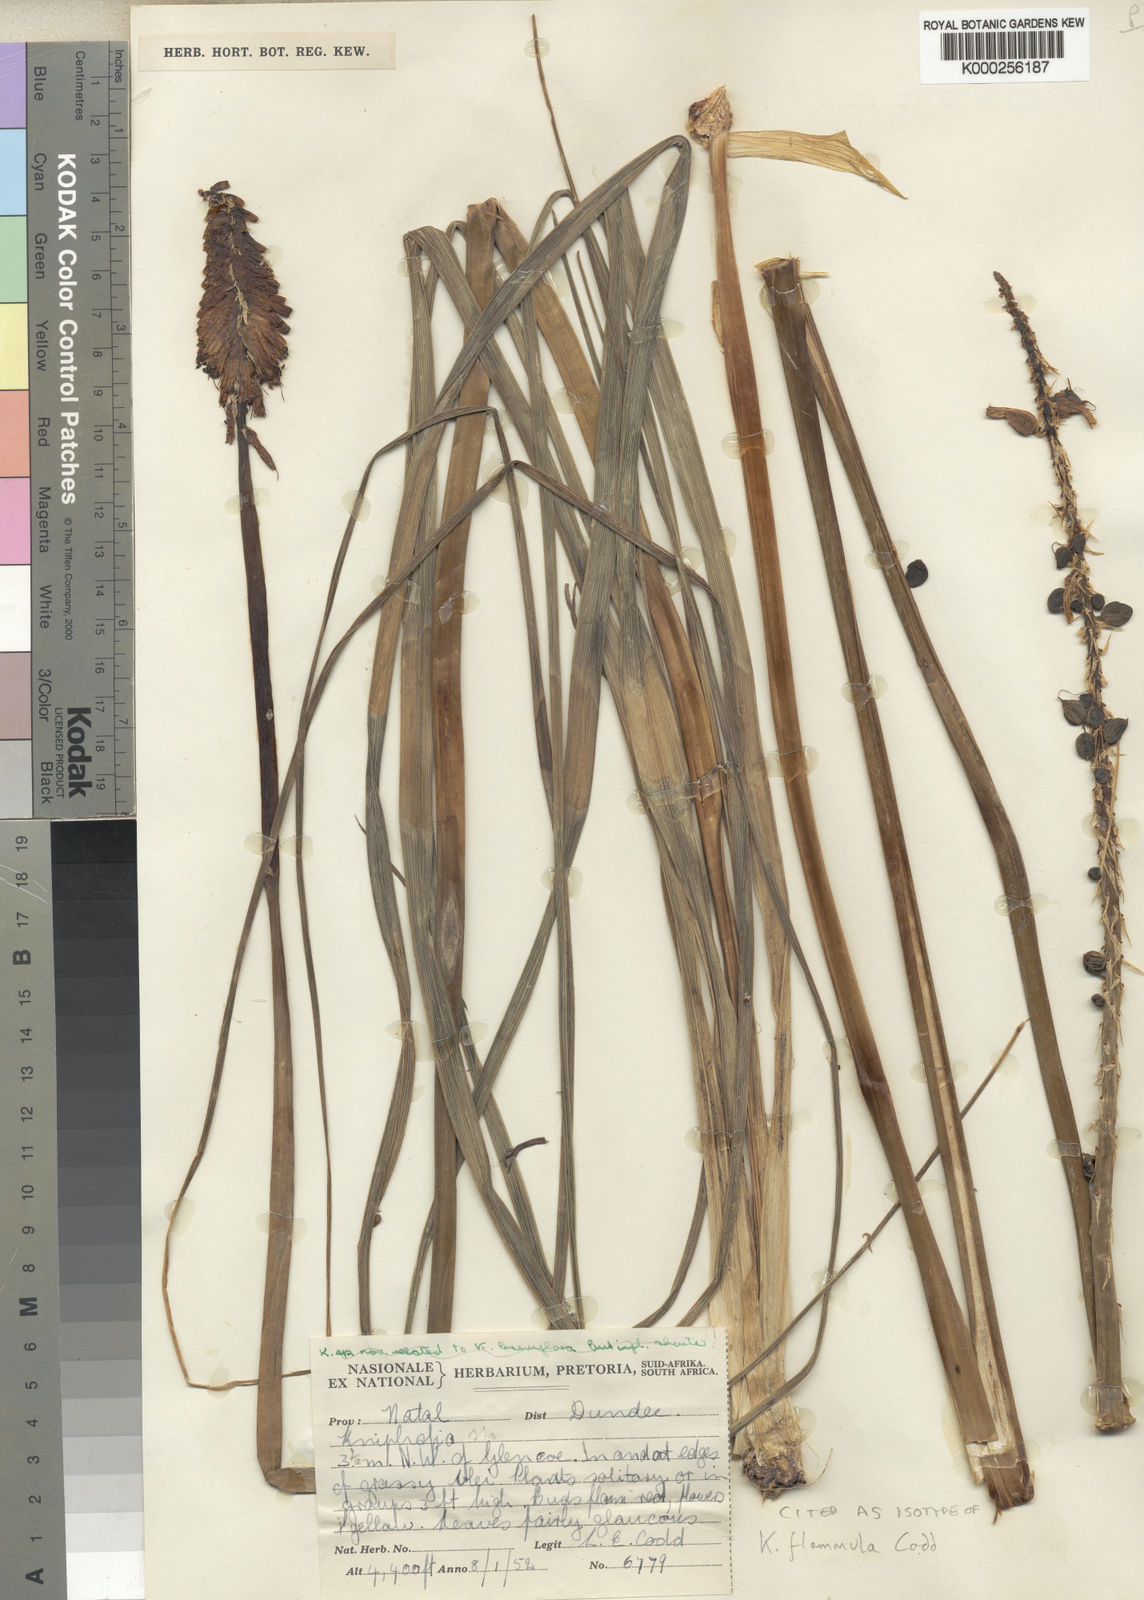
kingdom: Plantae
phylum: Tracheophyta
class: Liliopsida
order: Asparagales
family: Asphodelaceae
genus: Kniphofia
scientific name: Kniphofia flammula
